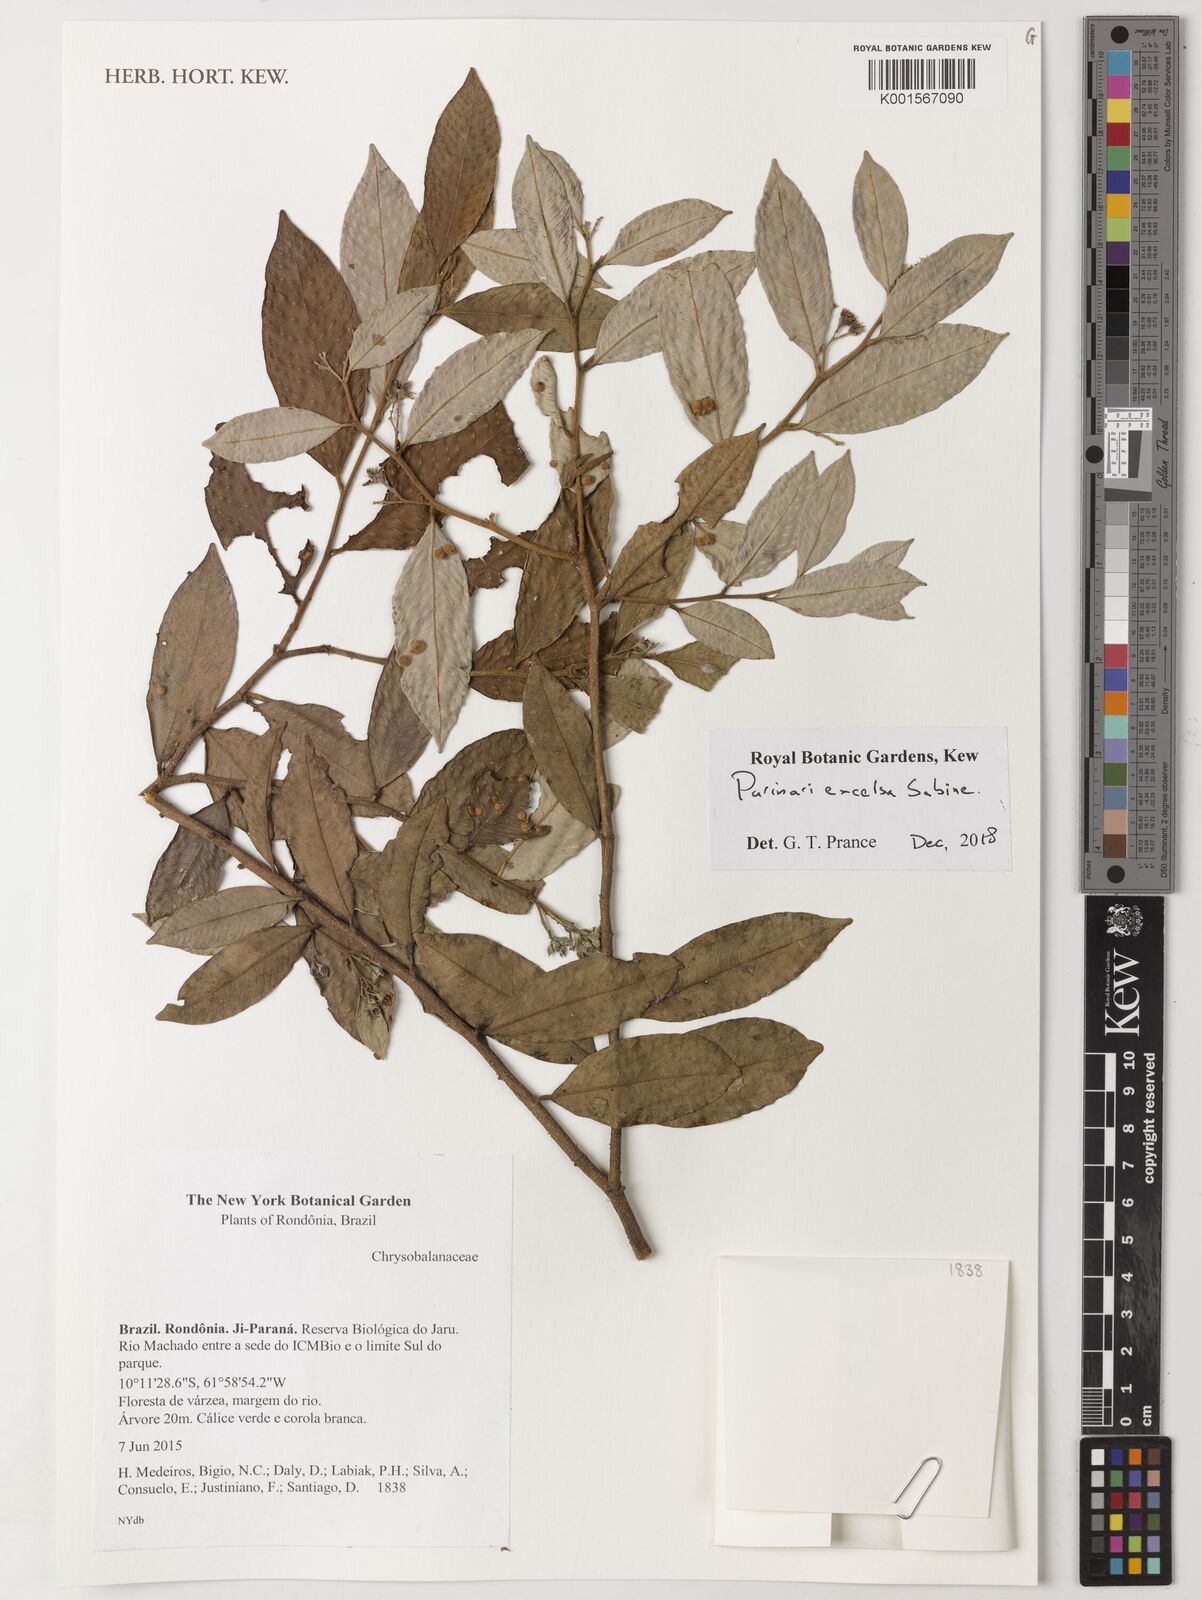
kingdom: Plantae
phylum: Tracheophyta
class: Magnoliopsida
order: Malpighiales
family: Chrysobalanaceae
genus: Parinari
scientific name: Parinari excelsa
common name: Guinea-plum
